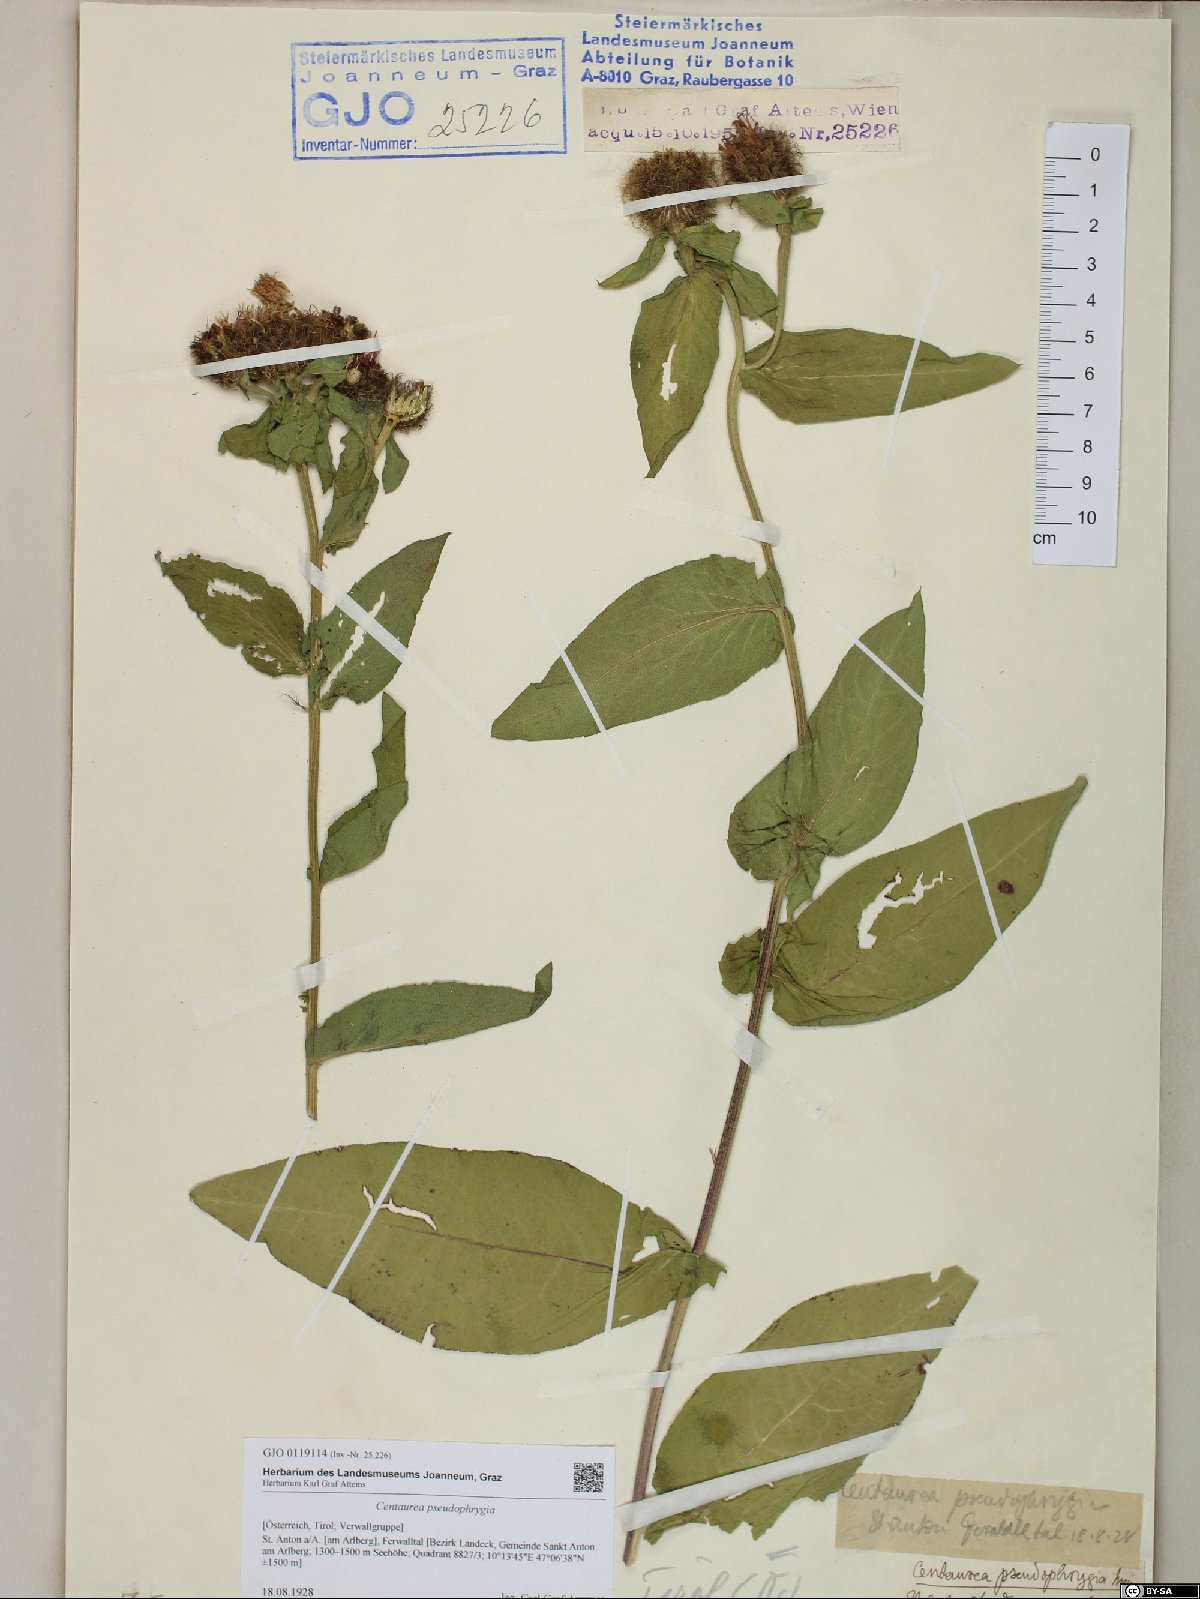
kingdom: Plantae
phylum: Tracheophyta
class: Magnoliopsida
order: Asterales
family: Asteraceae
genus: Centaurea
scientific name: Centaurea pseudophrygia
